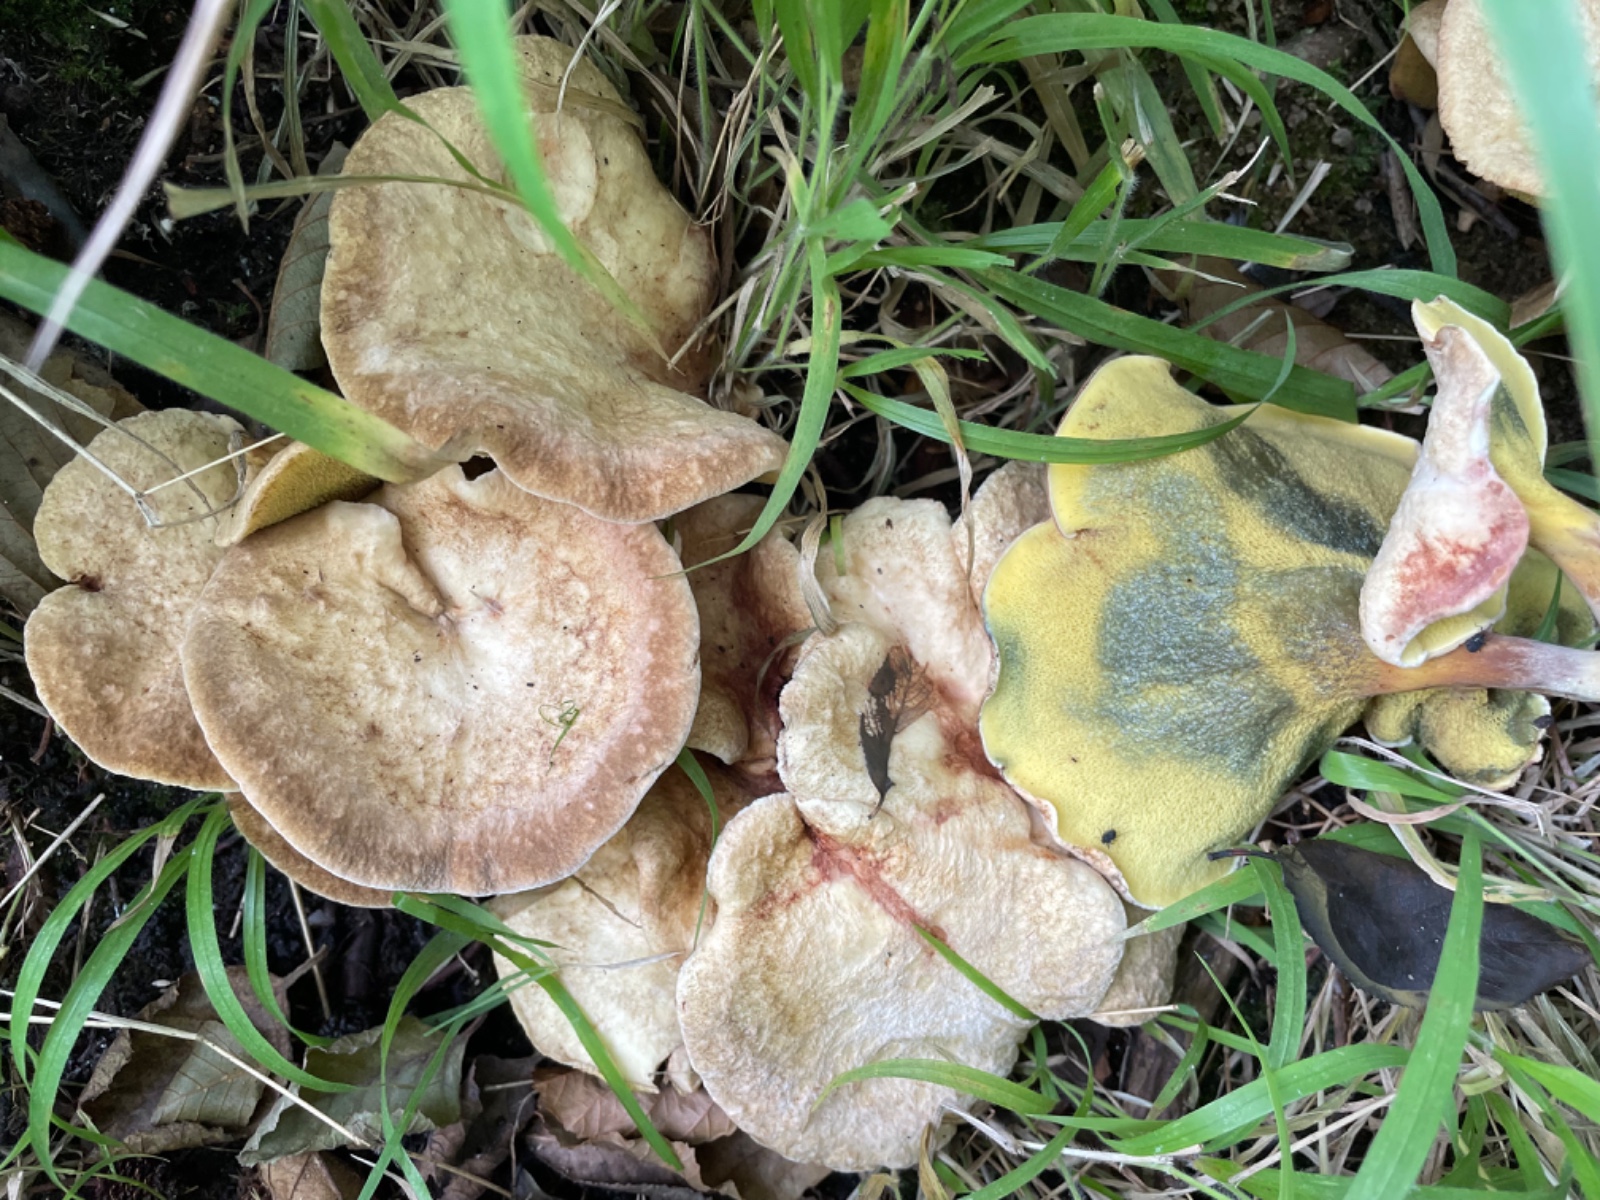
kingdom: Fungi
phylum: Basidiomycota
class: Agaricomycetes
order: Boletales
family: Paxillaceae
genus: Gyrodon
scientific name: Gyrodon lividus
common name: ellerørhat
